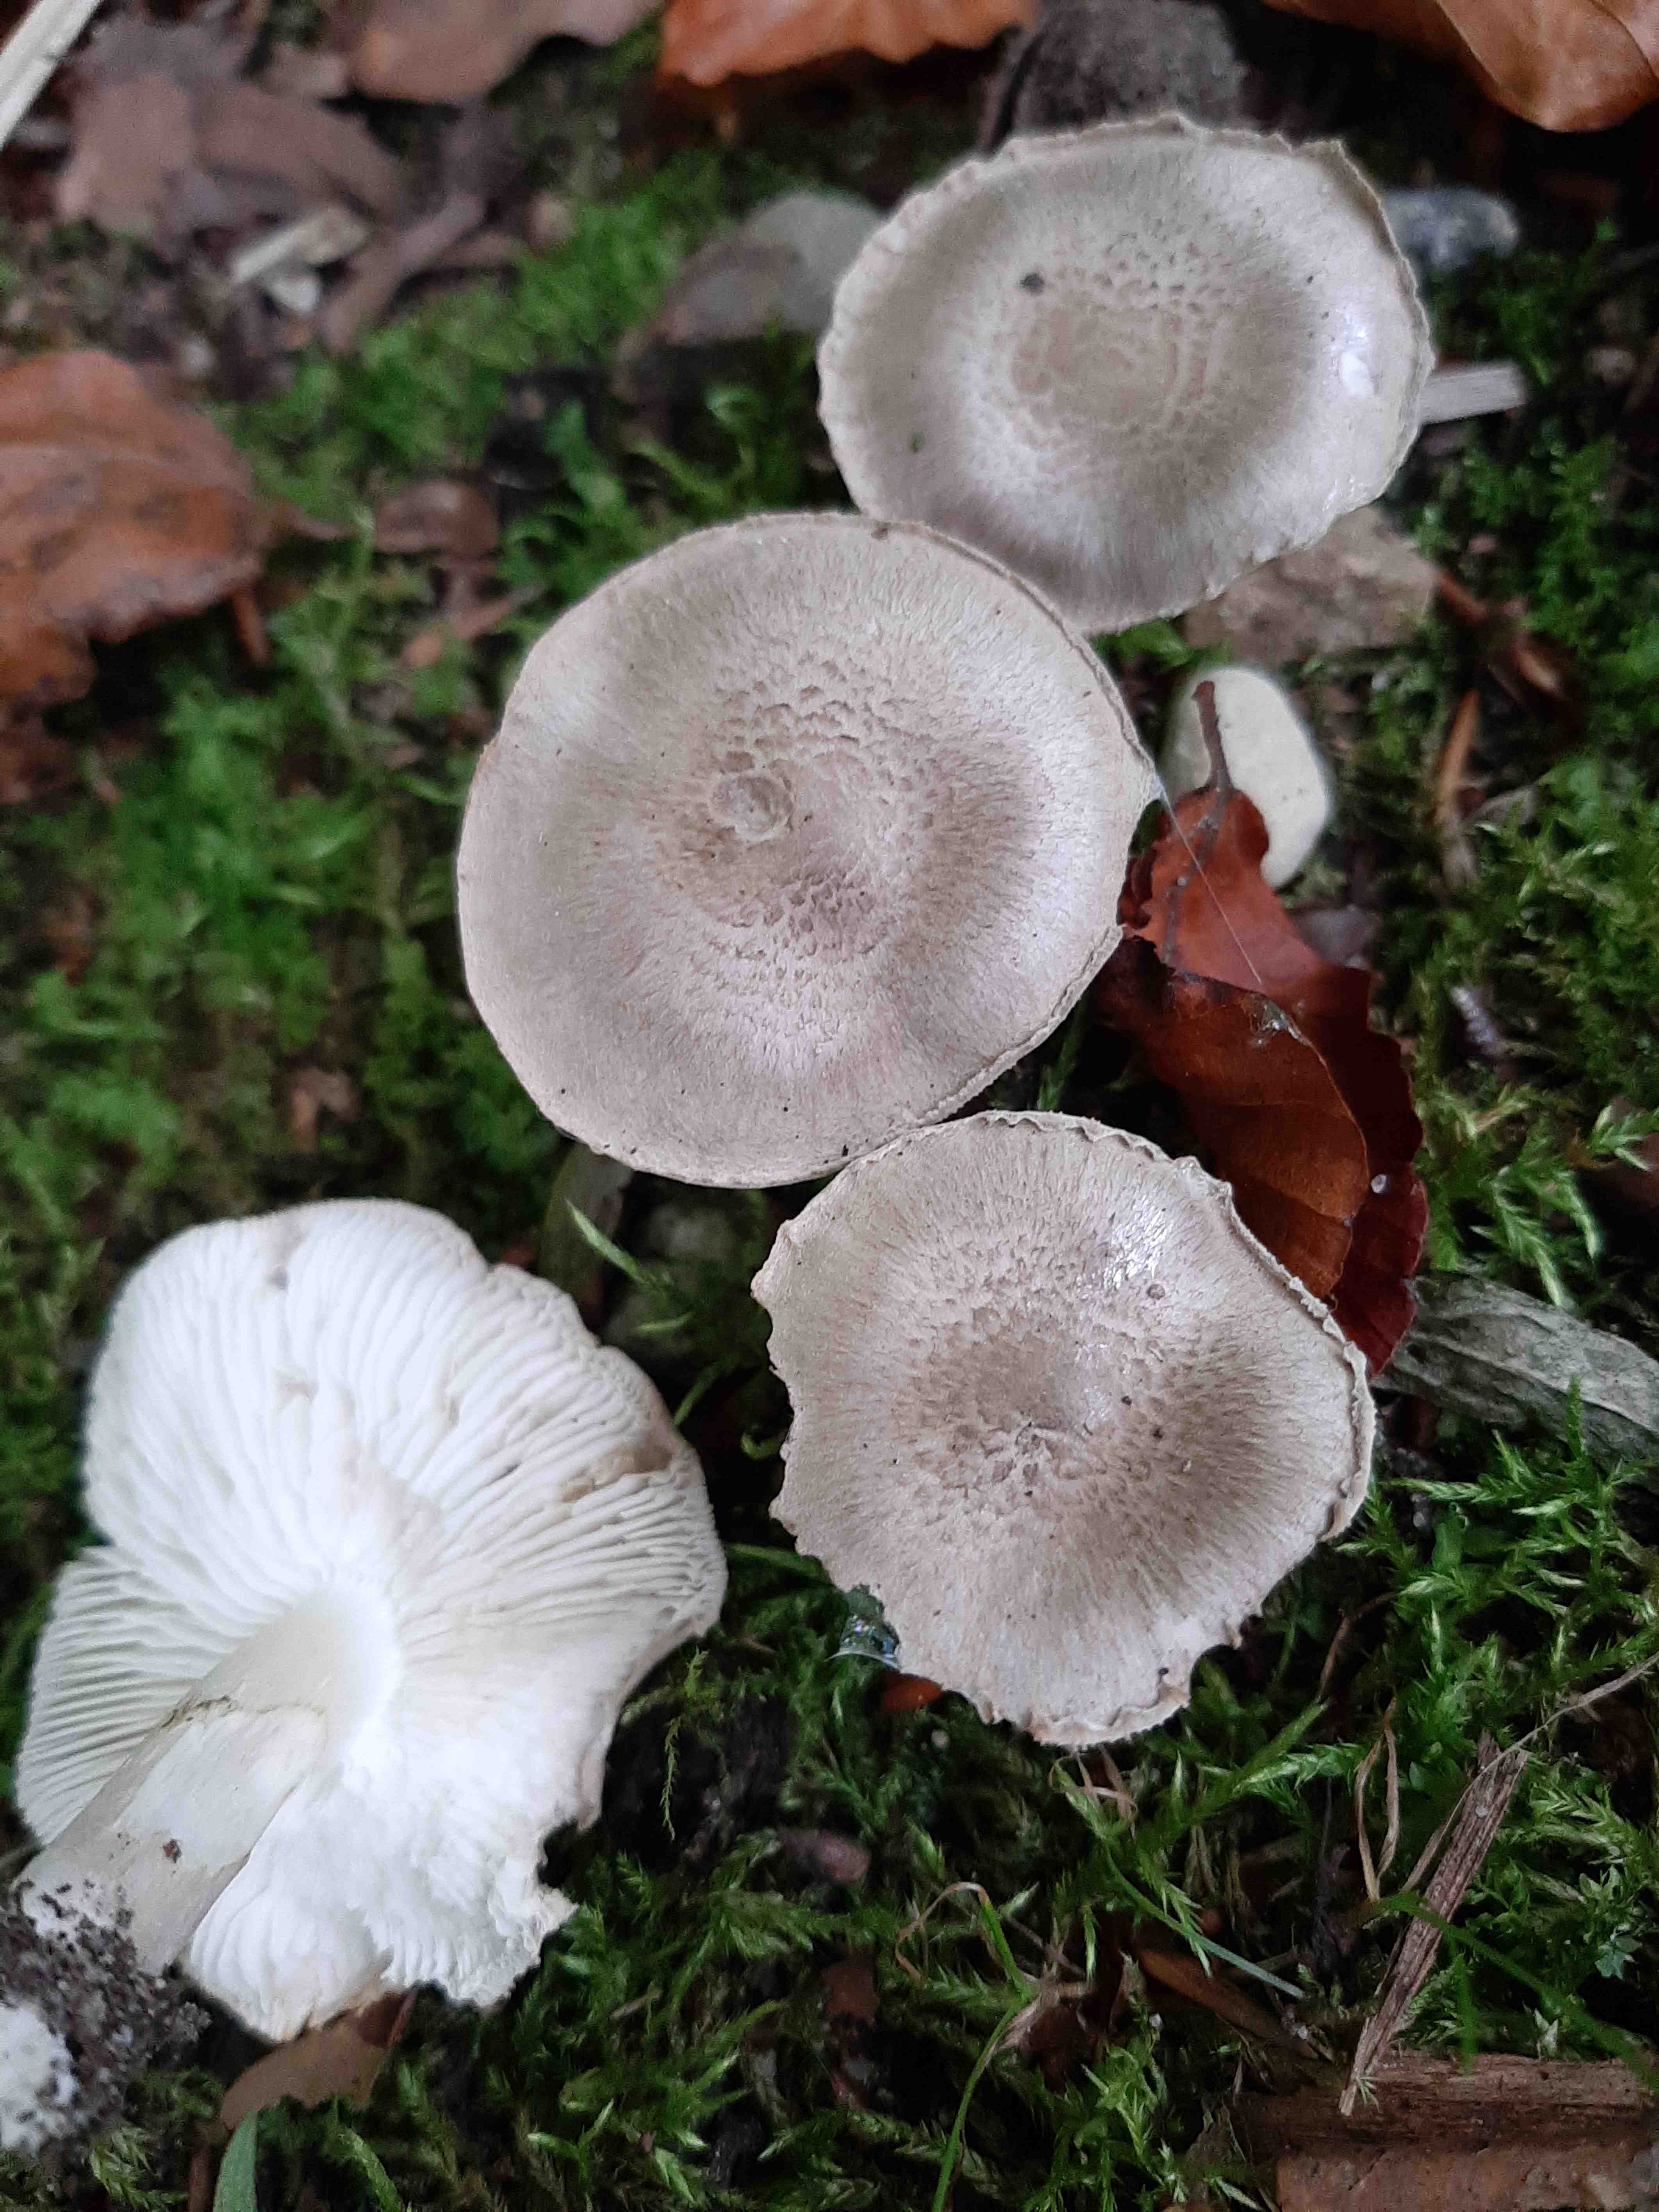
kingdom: Fungi
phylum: Basidiomycota
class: Agaricomycetes
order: Agaricales
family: Tricholomataceae
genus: Tricholoma
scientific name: Tricholoma scalpturatum
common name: gulplettet ridderhat
